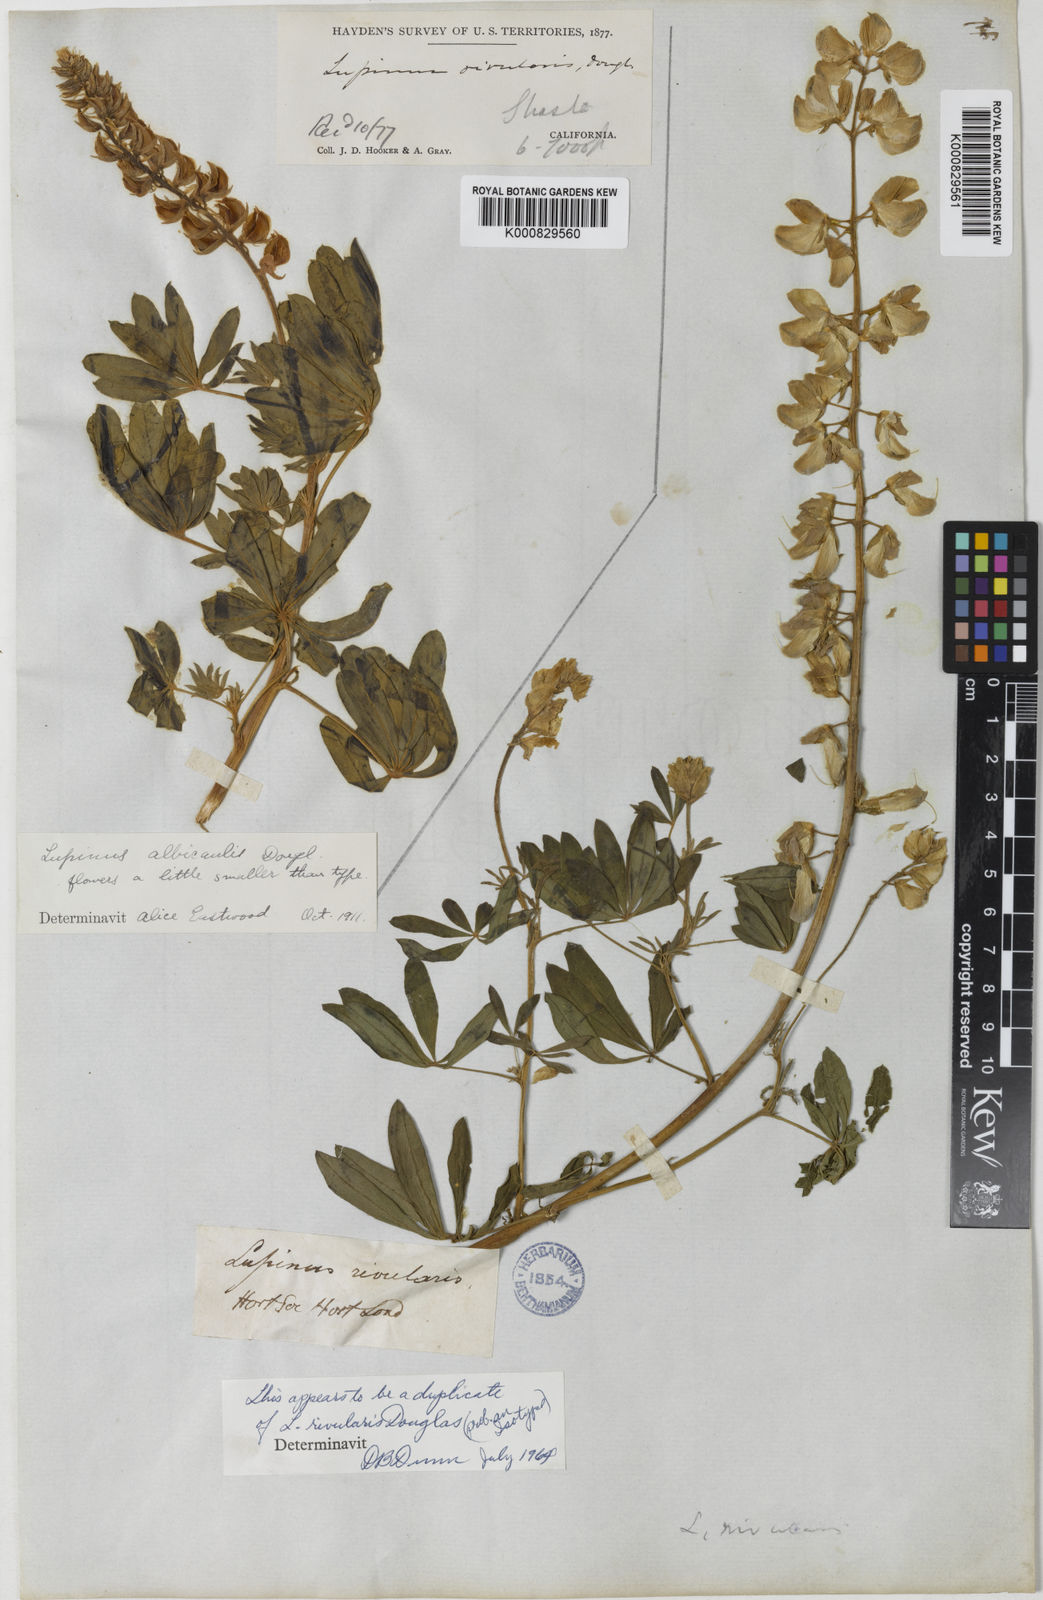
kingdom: Plantae
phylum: Tracheophyta
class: Magnoliopsida
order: Fabales
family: Fabaceae
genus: Lupinus
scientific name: Lupinus rivularis
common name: Riverbank lupine
